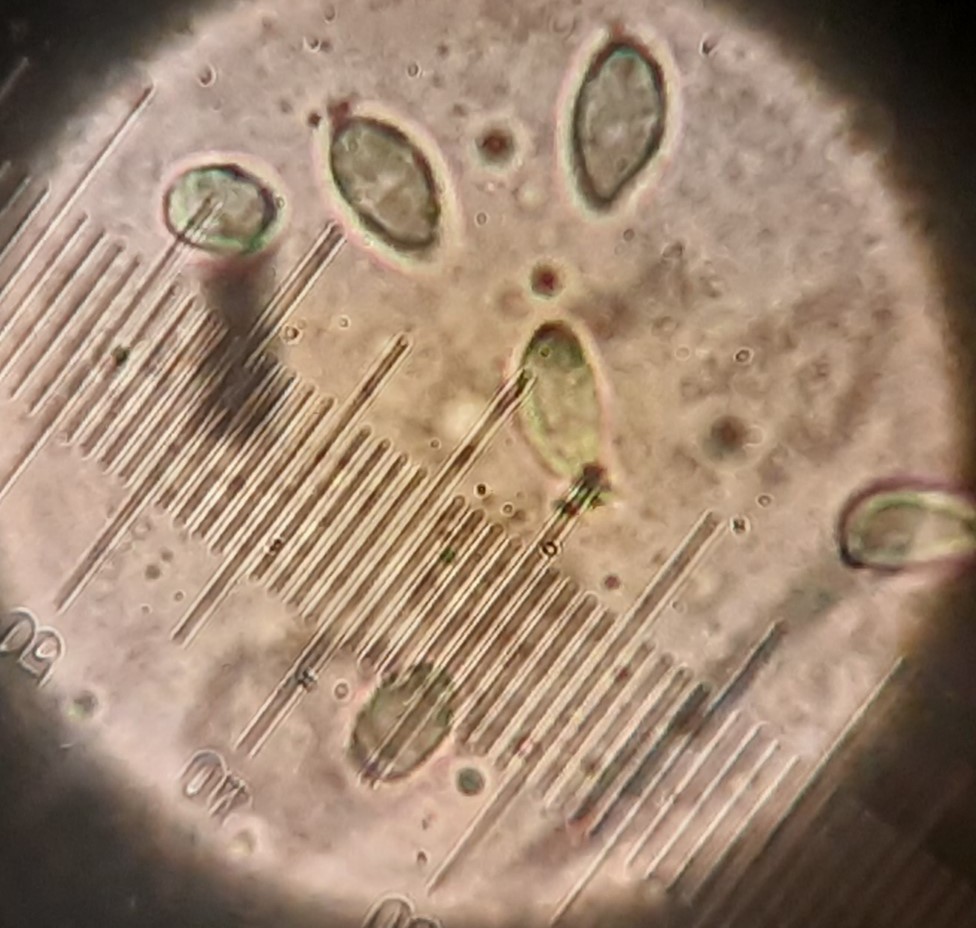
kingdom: Fungi
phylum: Basidiomycota
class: Agaricomycetes
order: Agaricales
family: Clavariaceae
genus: Clavulinopsis
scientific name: Clavulinopsis luteoalba
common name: abrikos-køllesvamp
